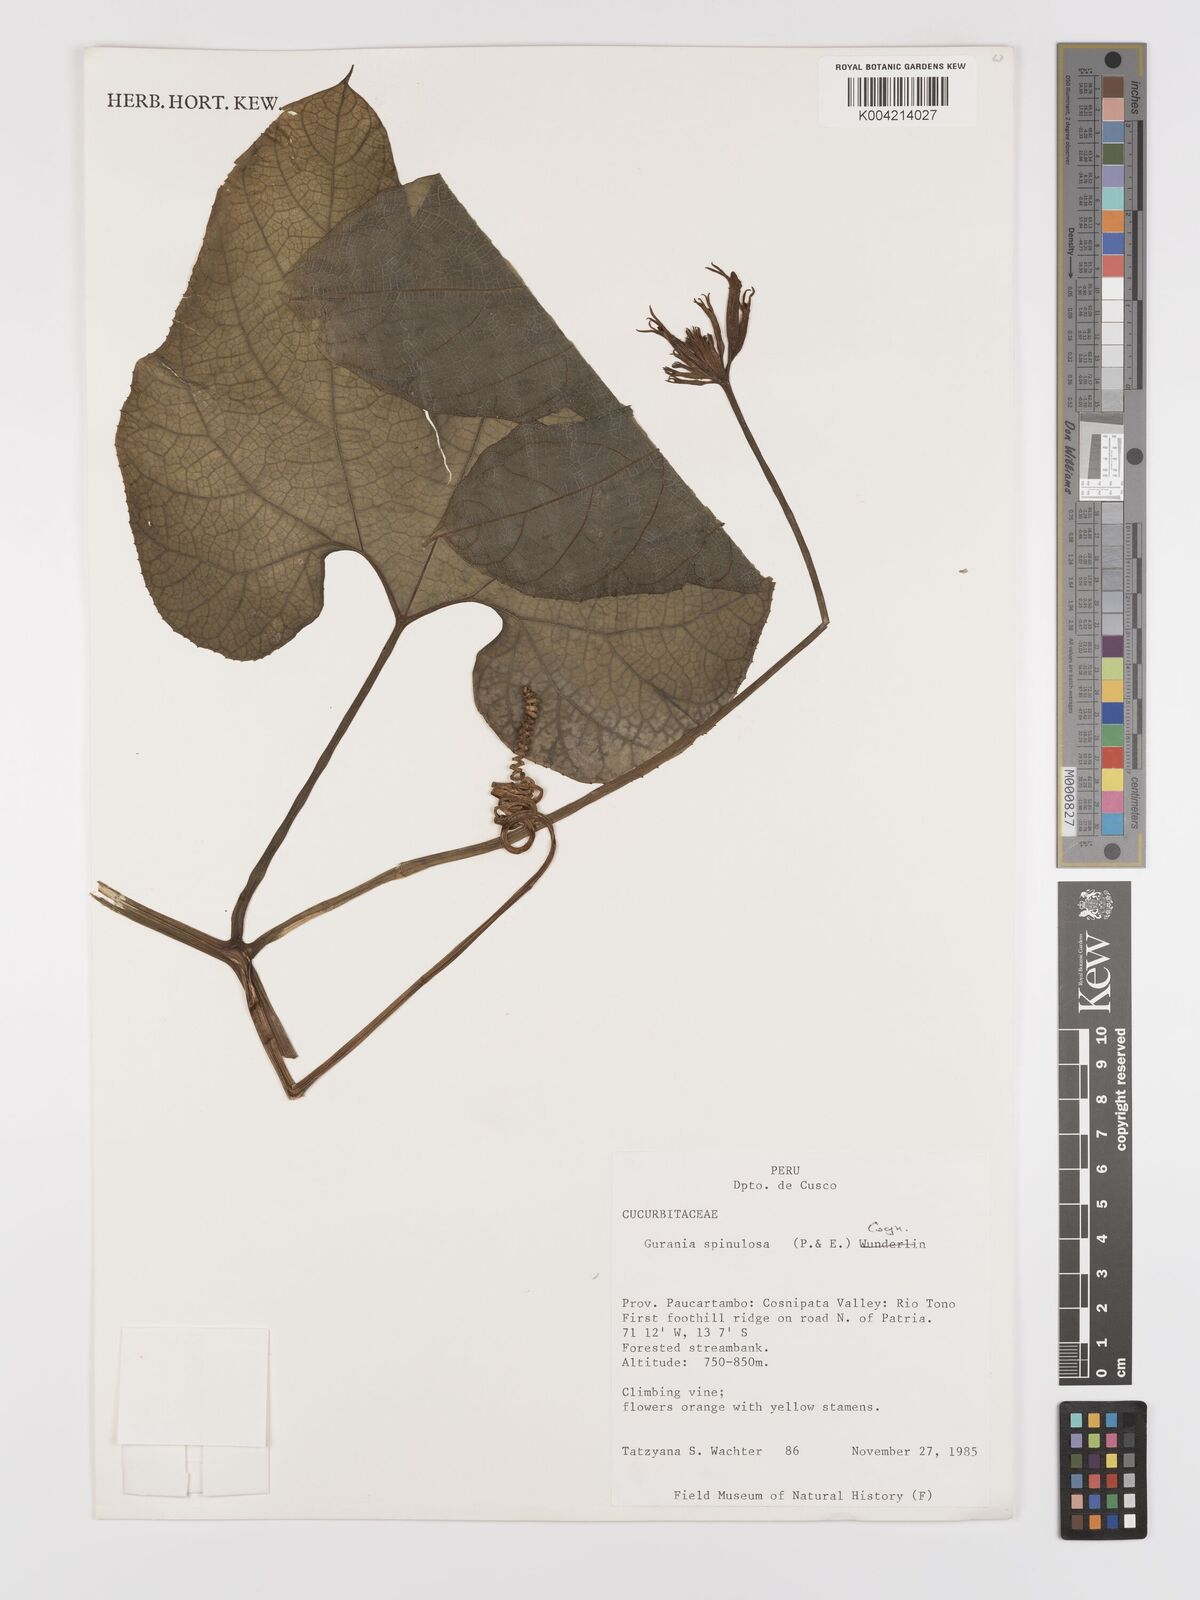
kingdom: Plantae
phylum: Tracheophyta
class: Magnoliopsida
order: Cucurbitales
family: Cucurbitaceae
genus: Gurania
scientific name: Gurania lobata
